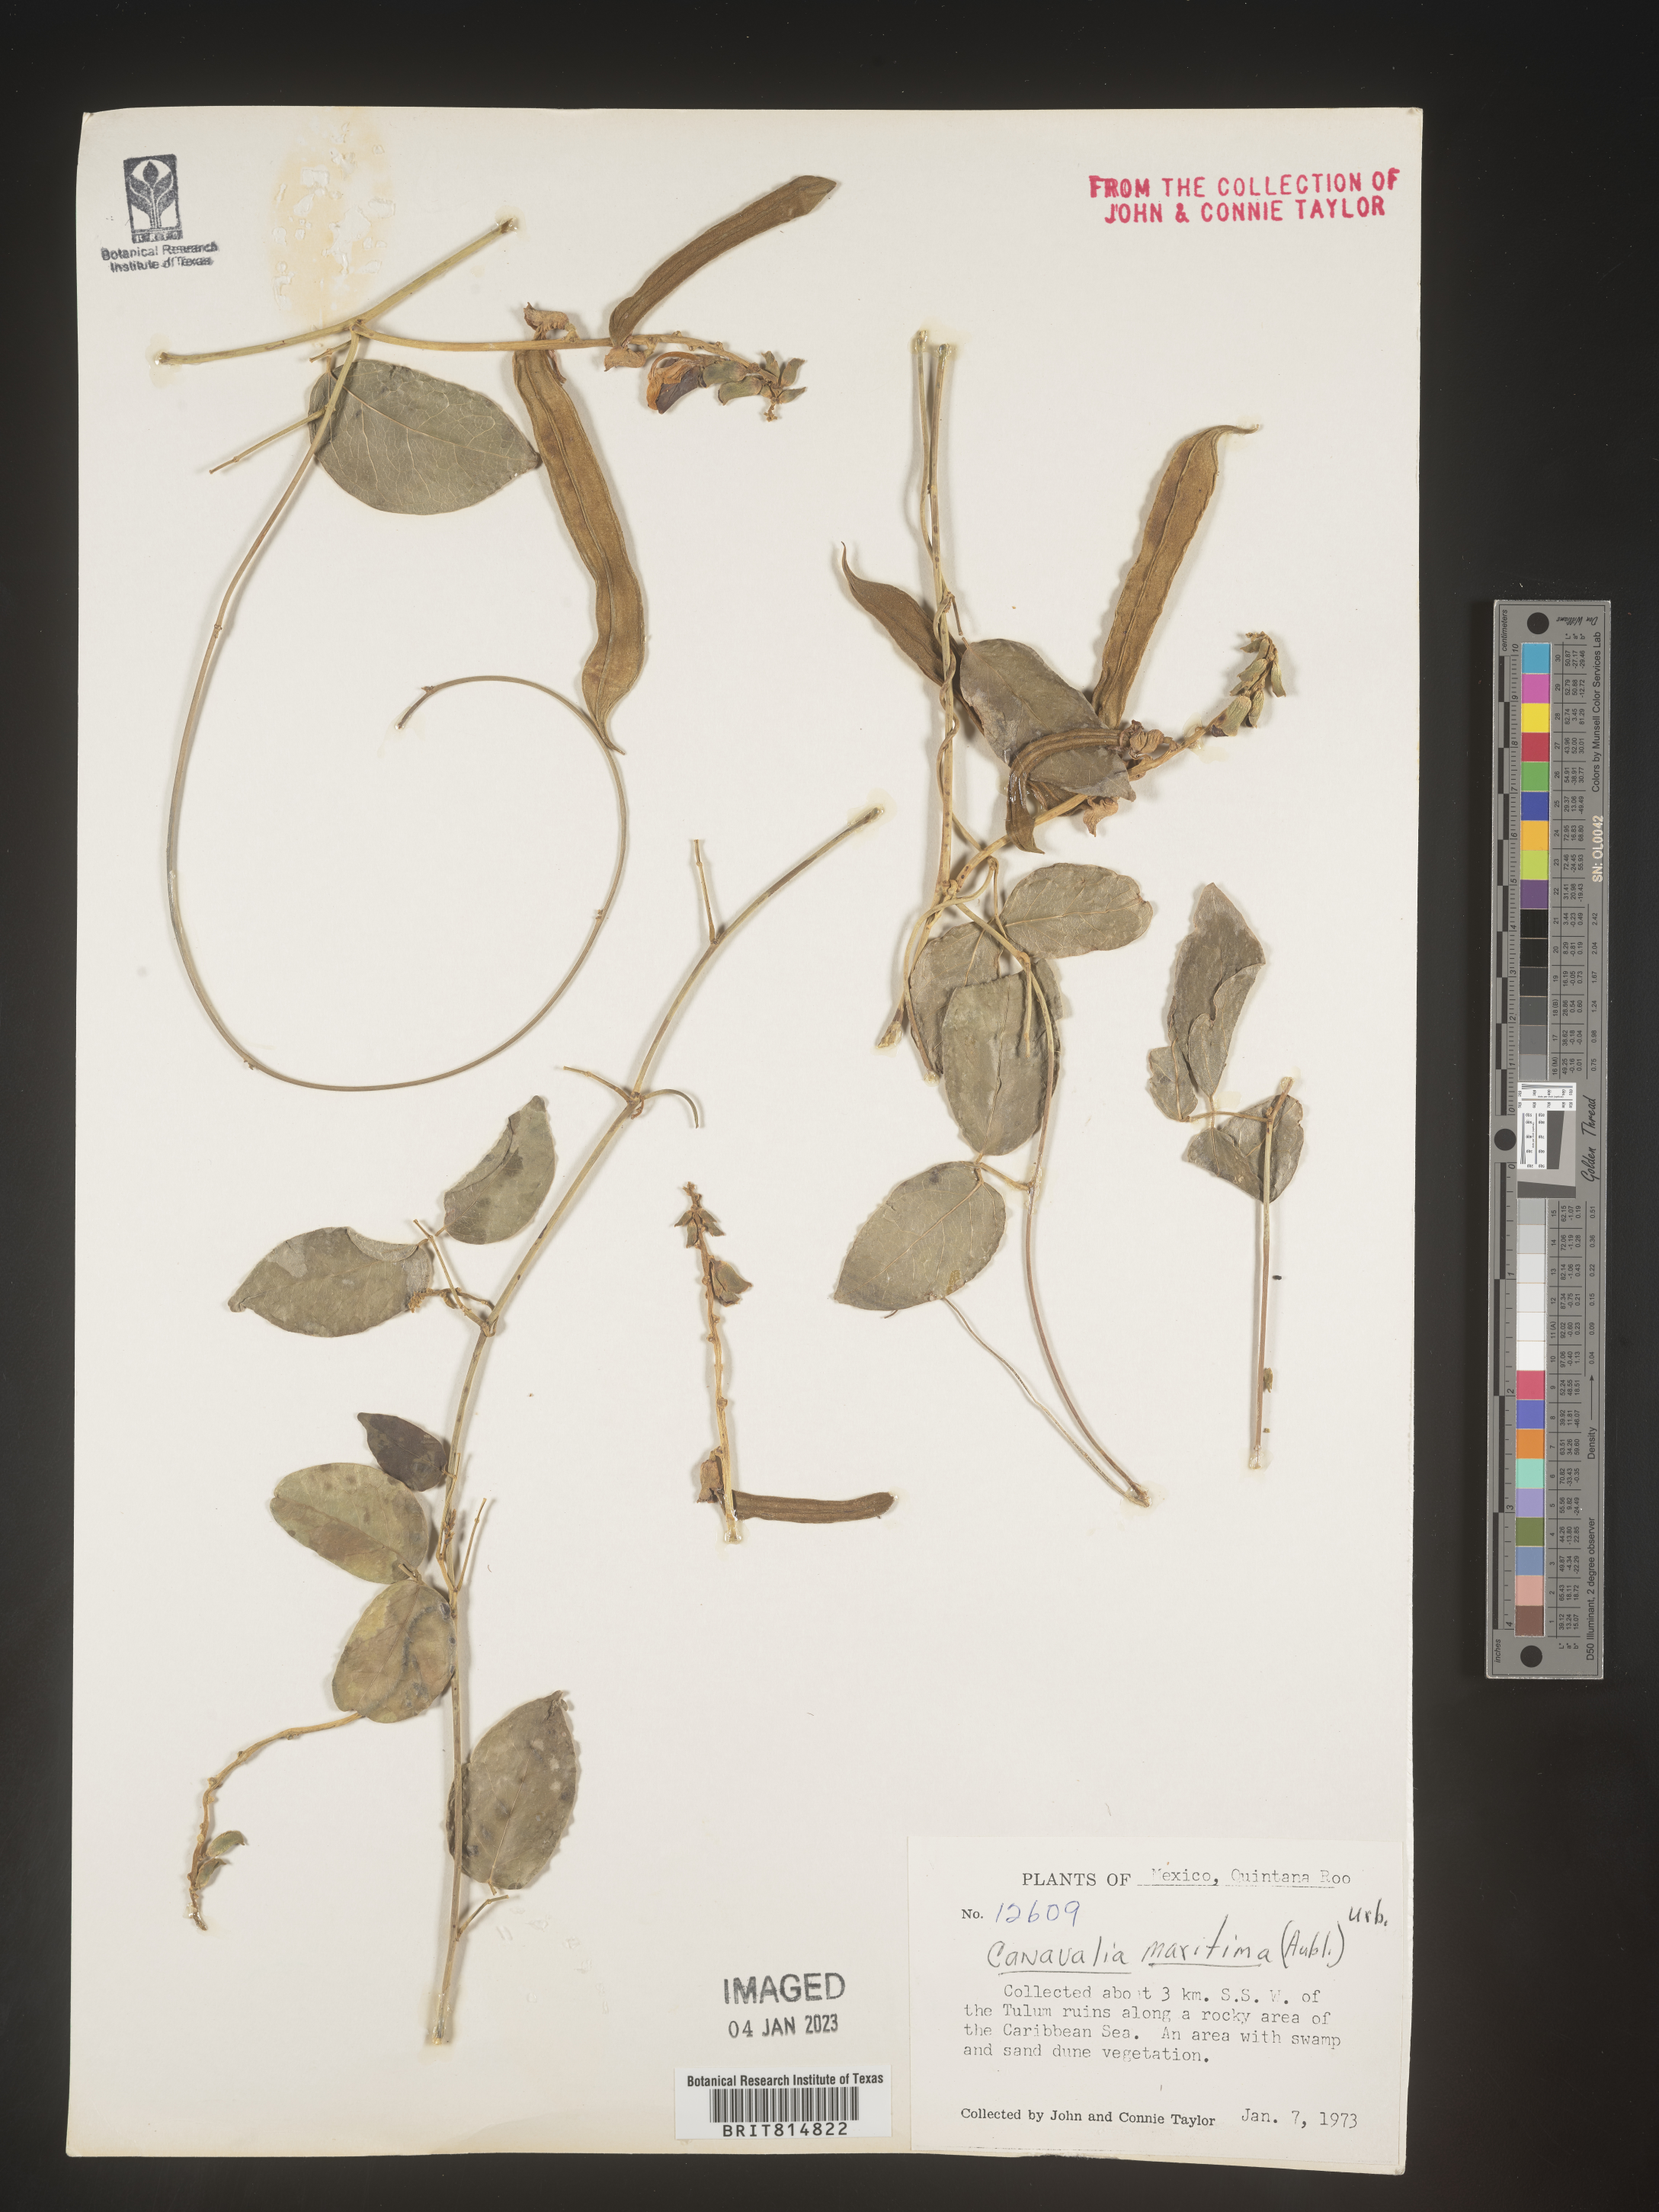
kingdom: Plantae
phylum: Tracheophyta
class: Magnoliopsida
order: Fabales
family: Fabaceae
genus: Canavalia
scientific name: Canavalia
